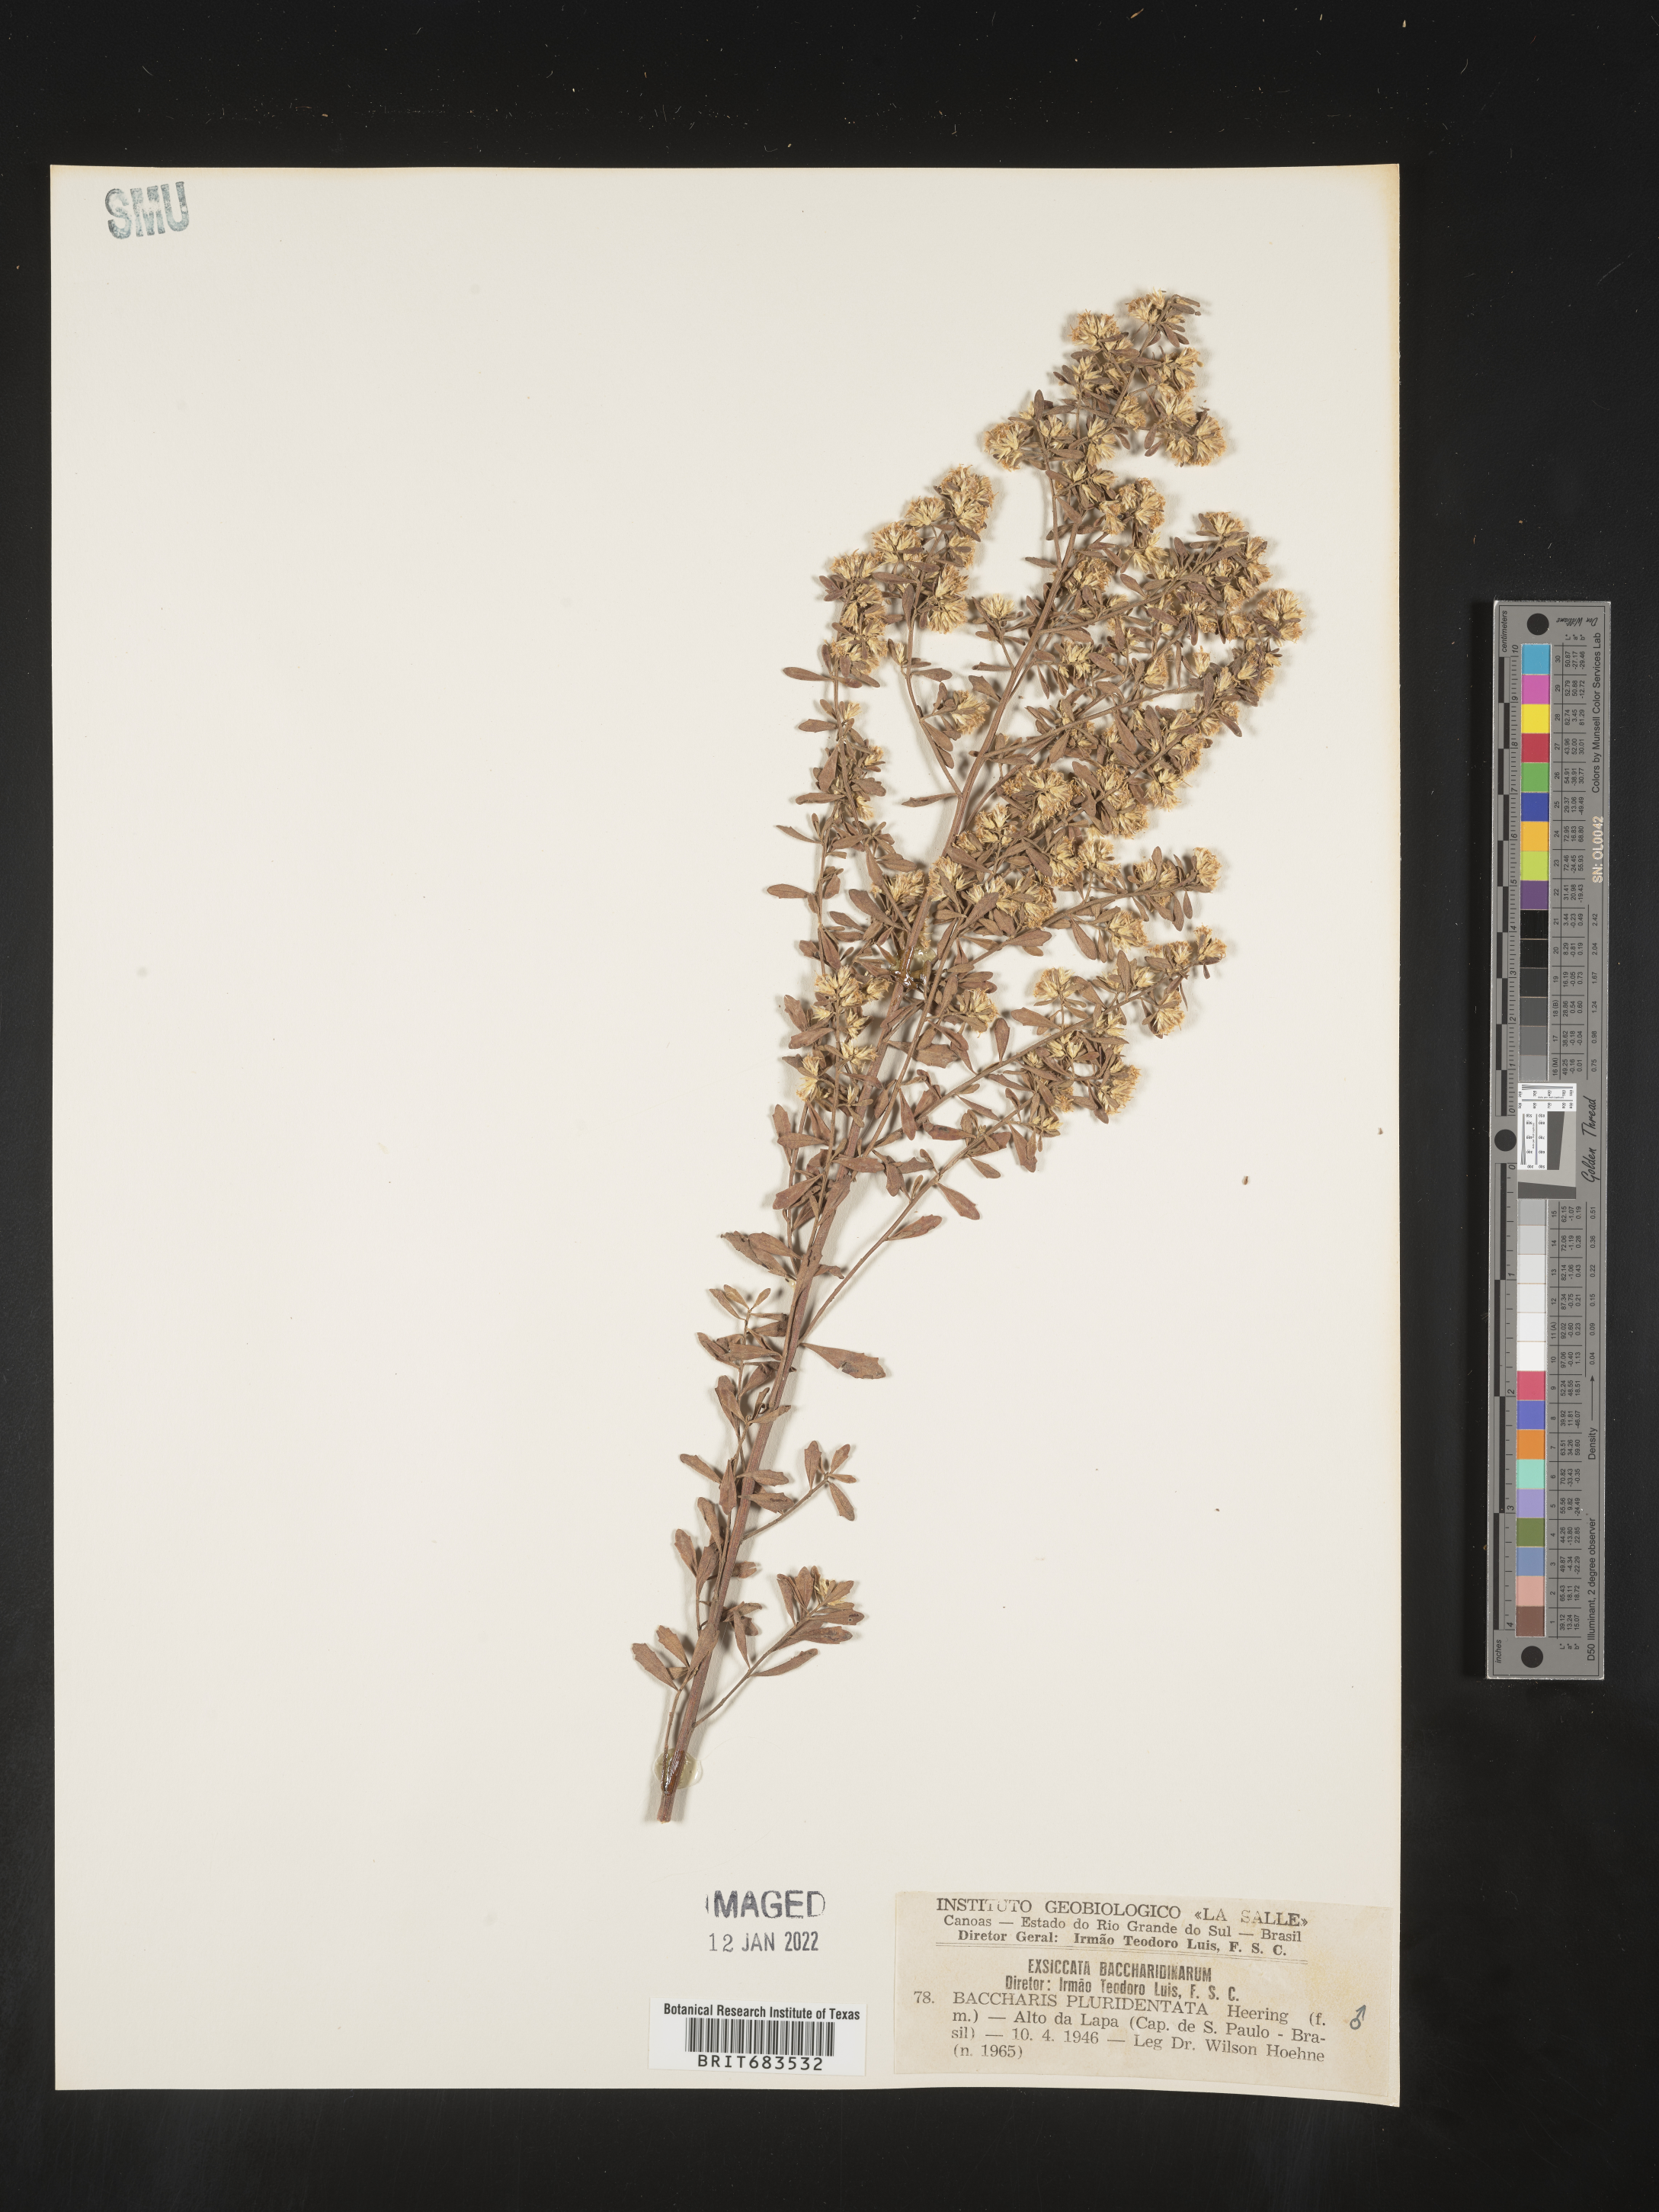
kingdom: Plantae
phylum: Tracheophyta
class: Magnoliopsida
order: Asterales
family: Asteraceae
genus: Baccharis
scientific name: Baccharis
